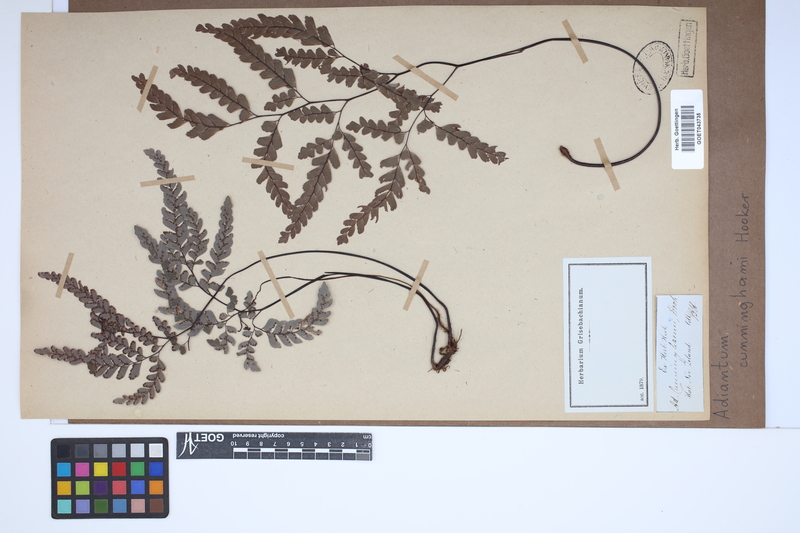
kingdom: Plantae
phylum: Tracheophyta
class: Polypodiopsida
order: Polypodiales
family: Pteridaceae
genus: Adiantum
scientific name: Adiantum cunninghamii
